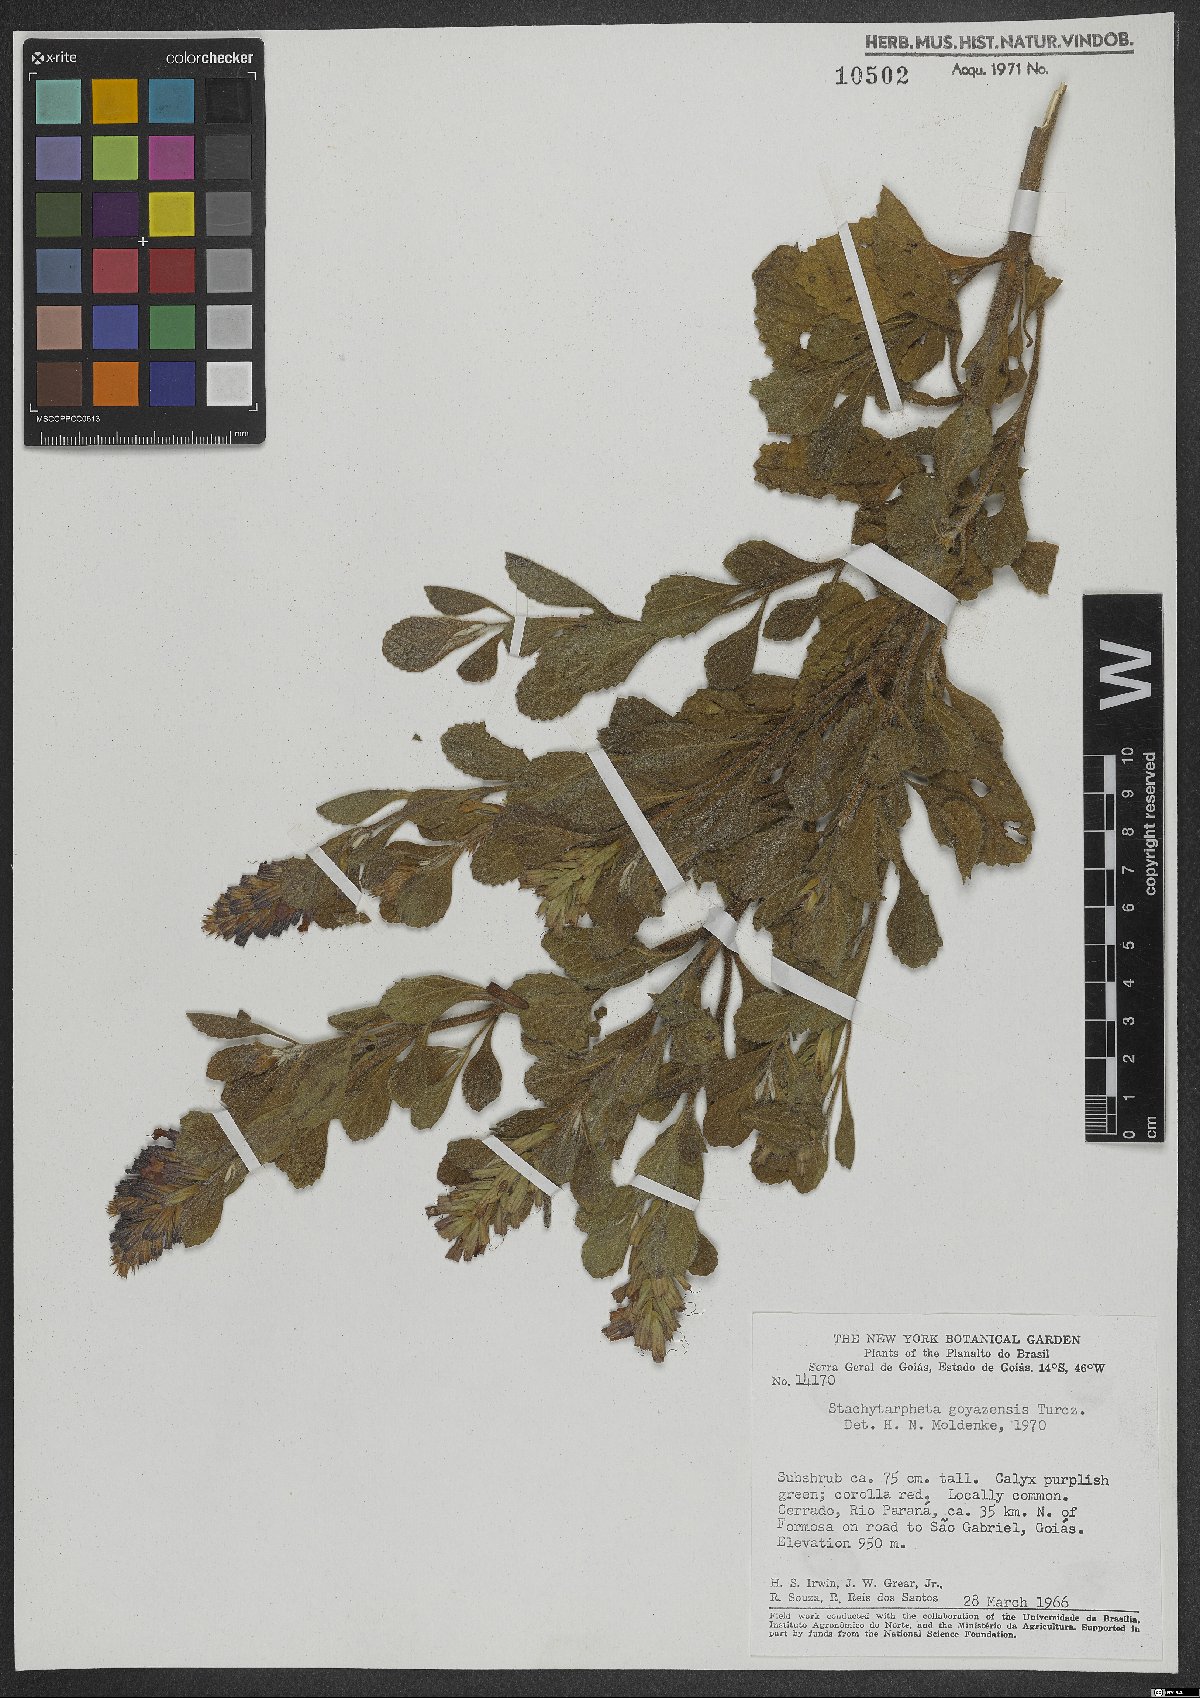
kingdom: Plantae
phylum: Tracheophyta
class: Magnoliopsida
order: Lamiales
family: Verbenaceae
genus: Stachytarpheta
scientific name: Stachytarpheta villosa
